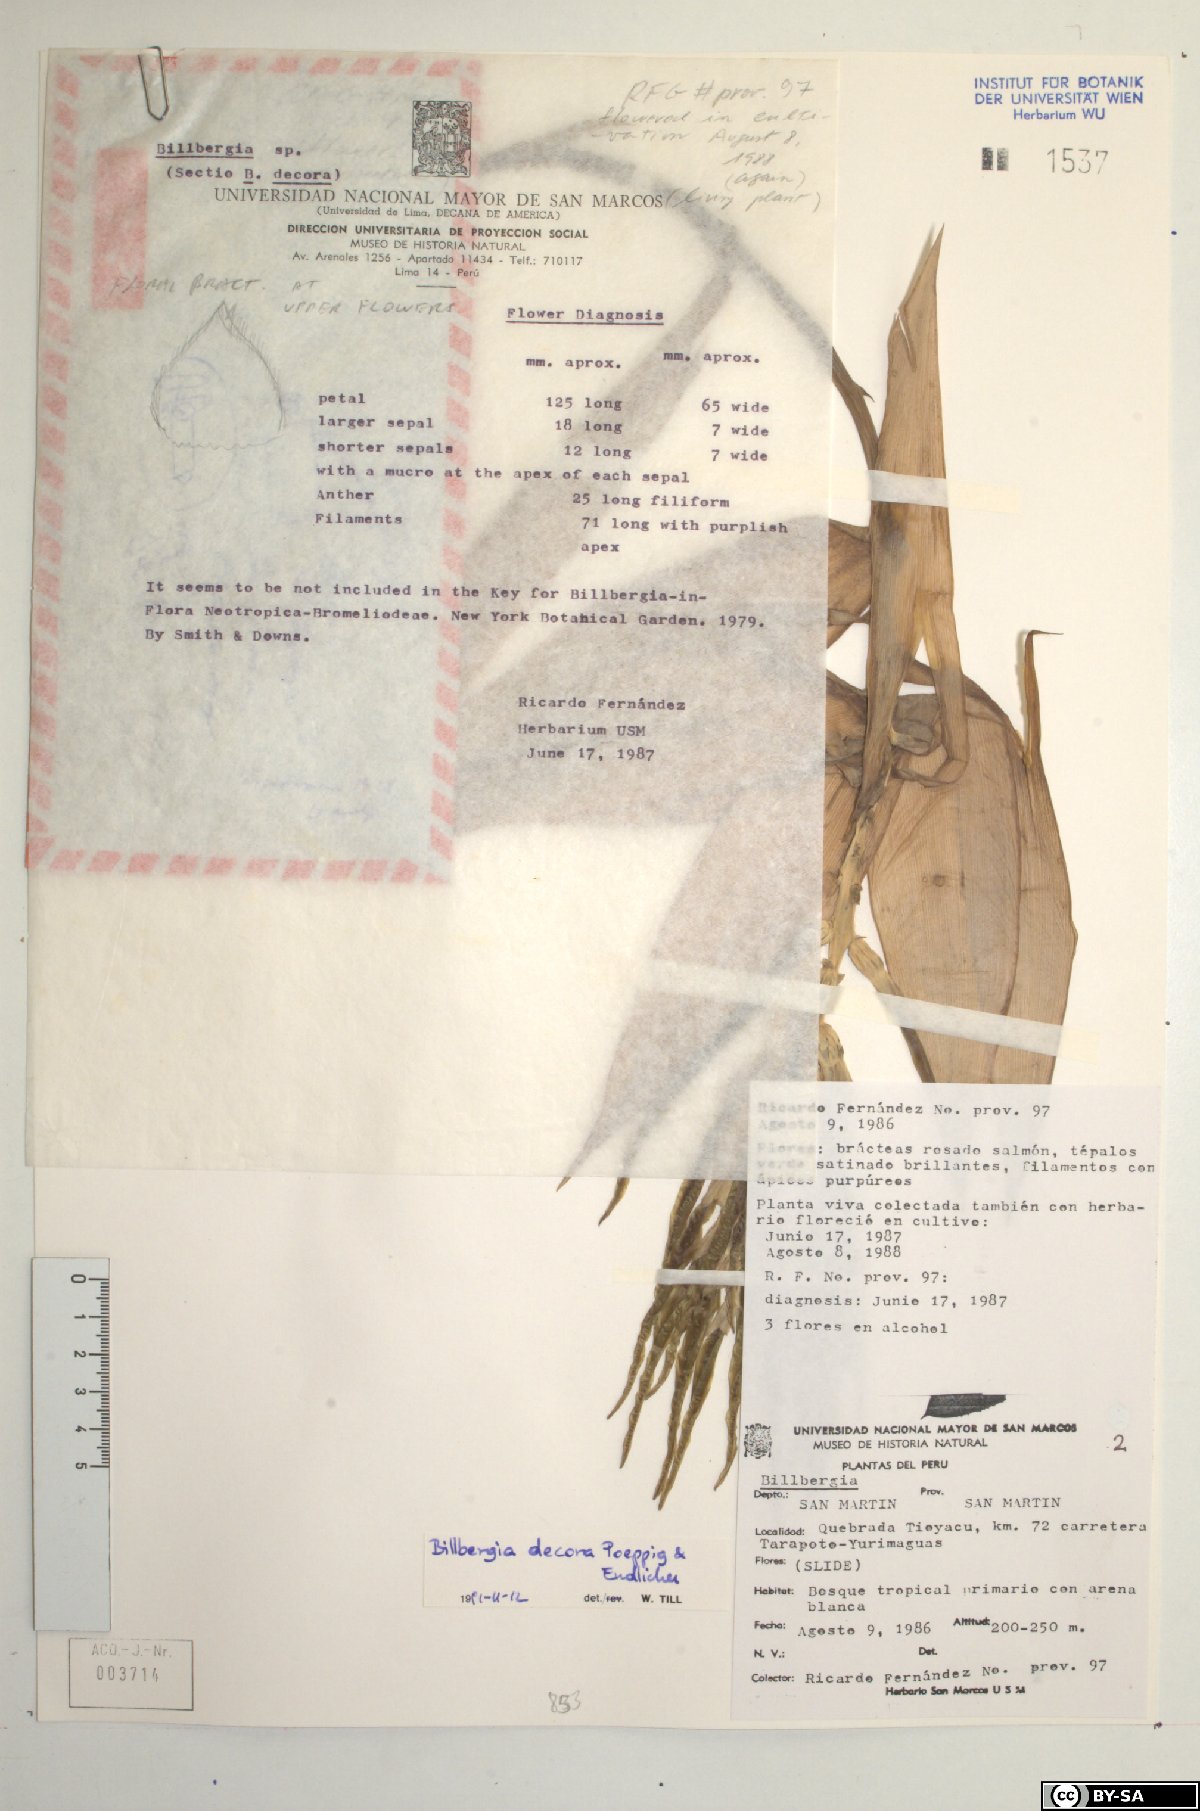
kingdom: Plantae
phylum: Tracheophyta
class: Liliopsida
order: Poales
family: Bromeliaceae
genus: Billbergia
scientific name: Billbergia decora
